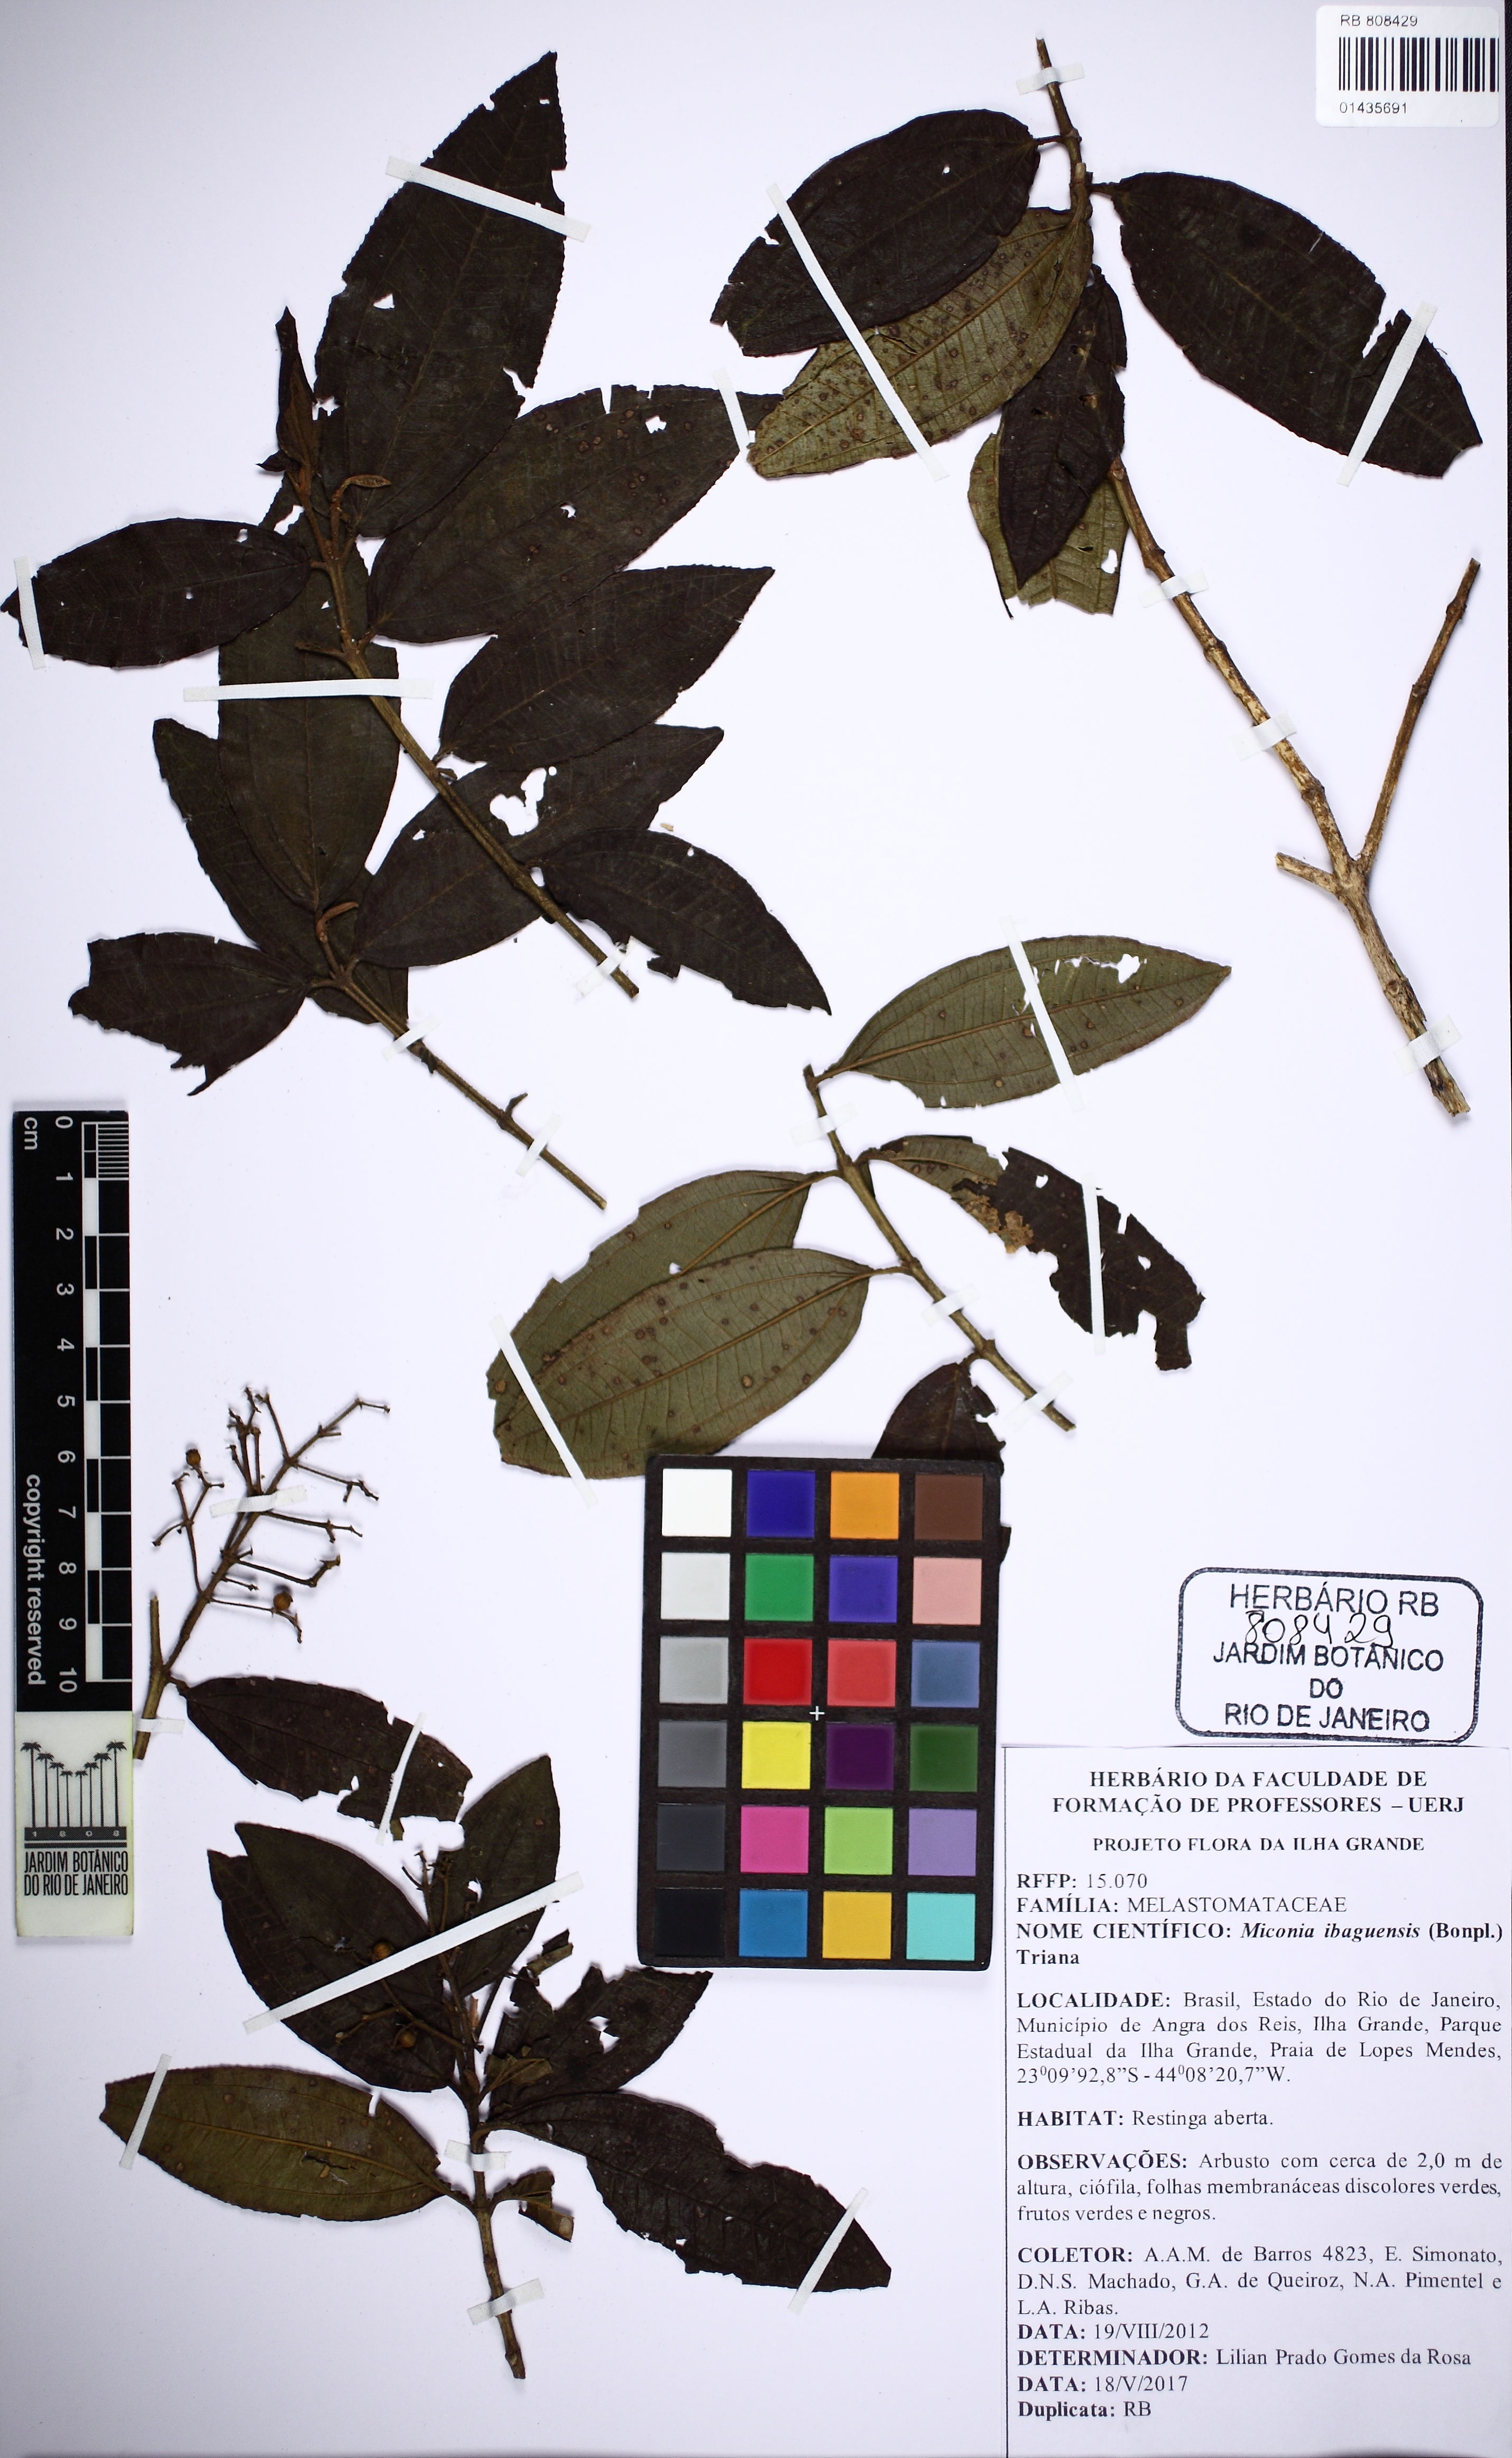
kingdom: Plantae
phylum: Tracheophyta
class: Magnoliopsida
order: Myrtales
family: Melastomataceae
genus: Miconia
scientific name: Miconia ibaguensis
